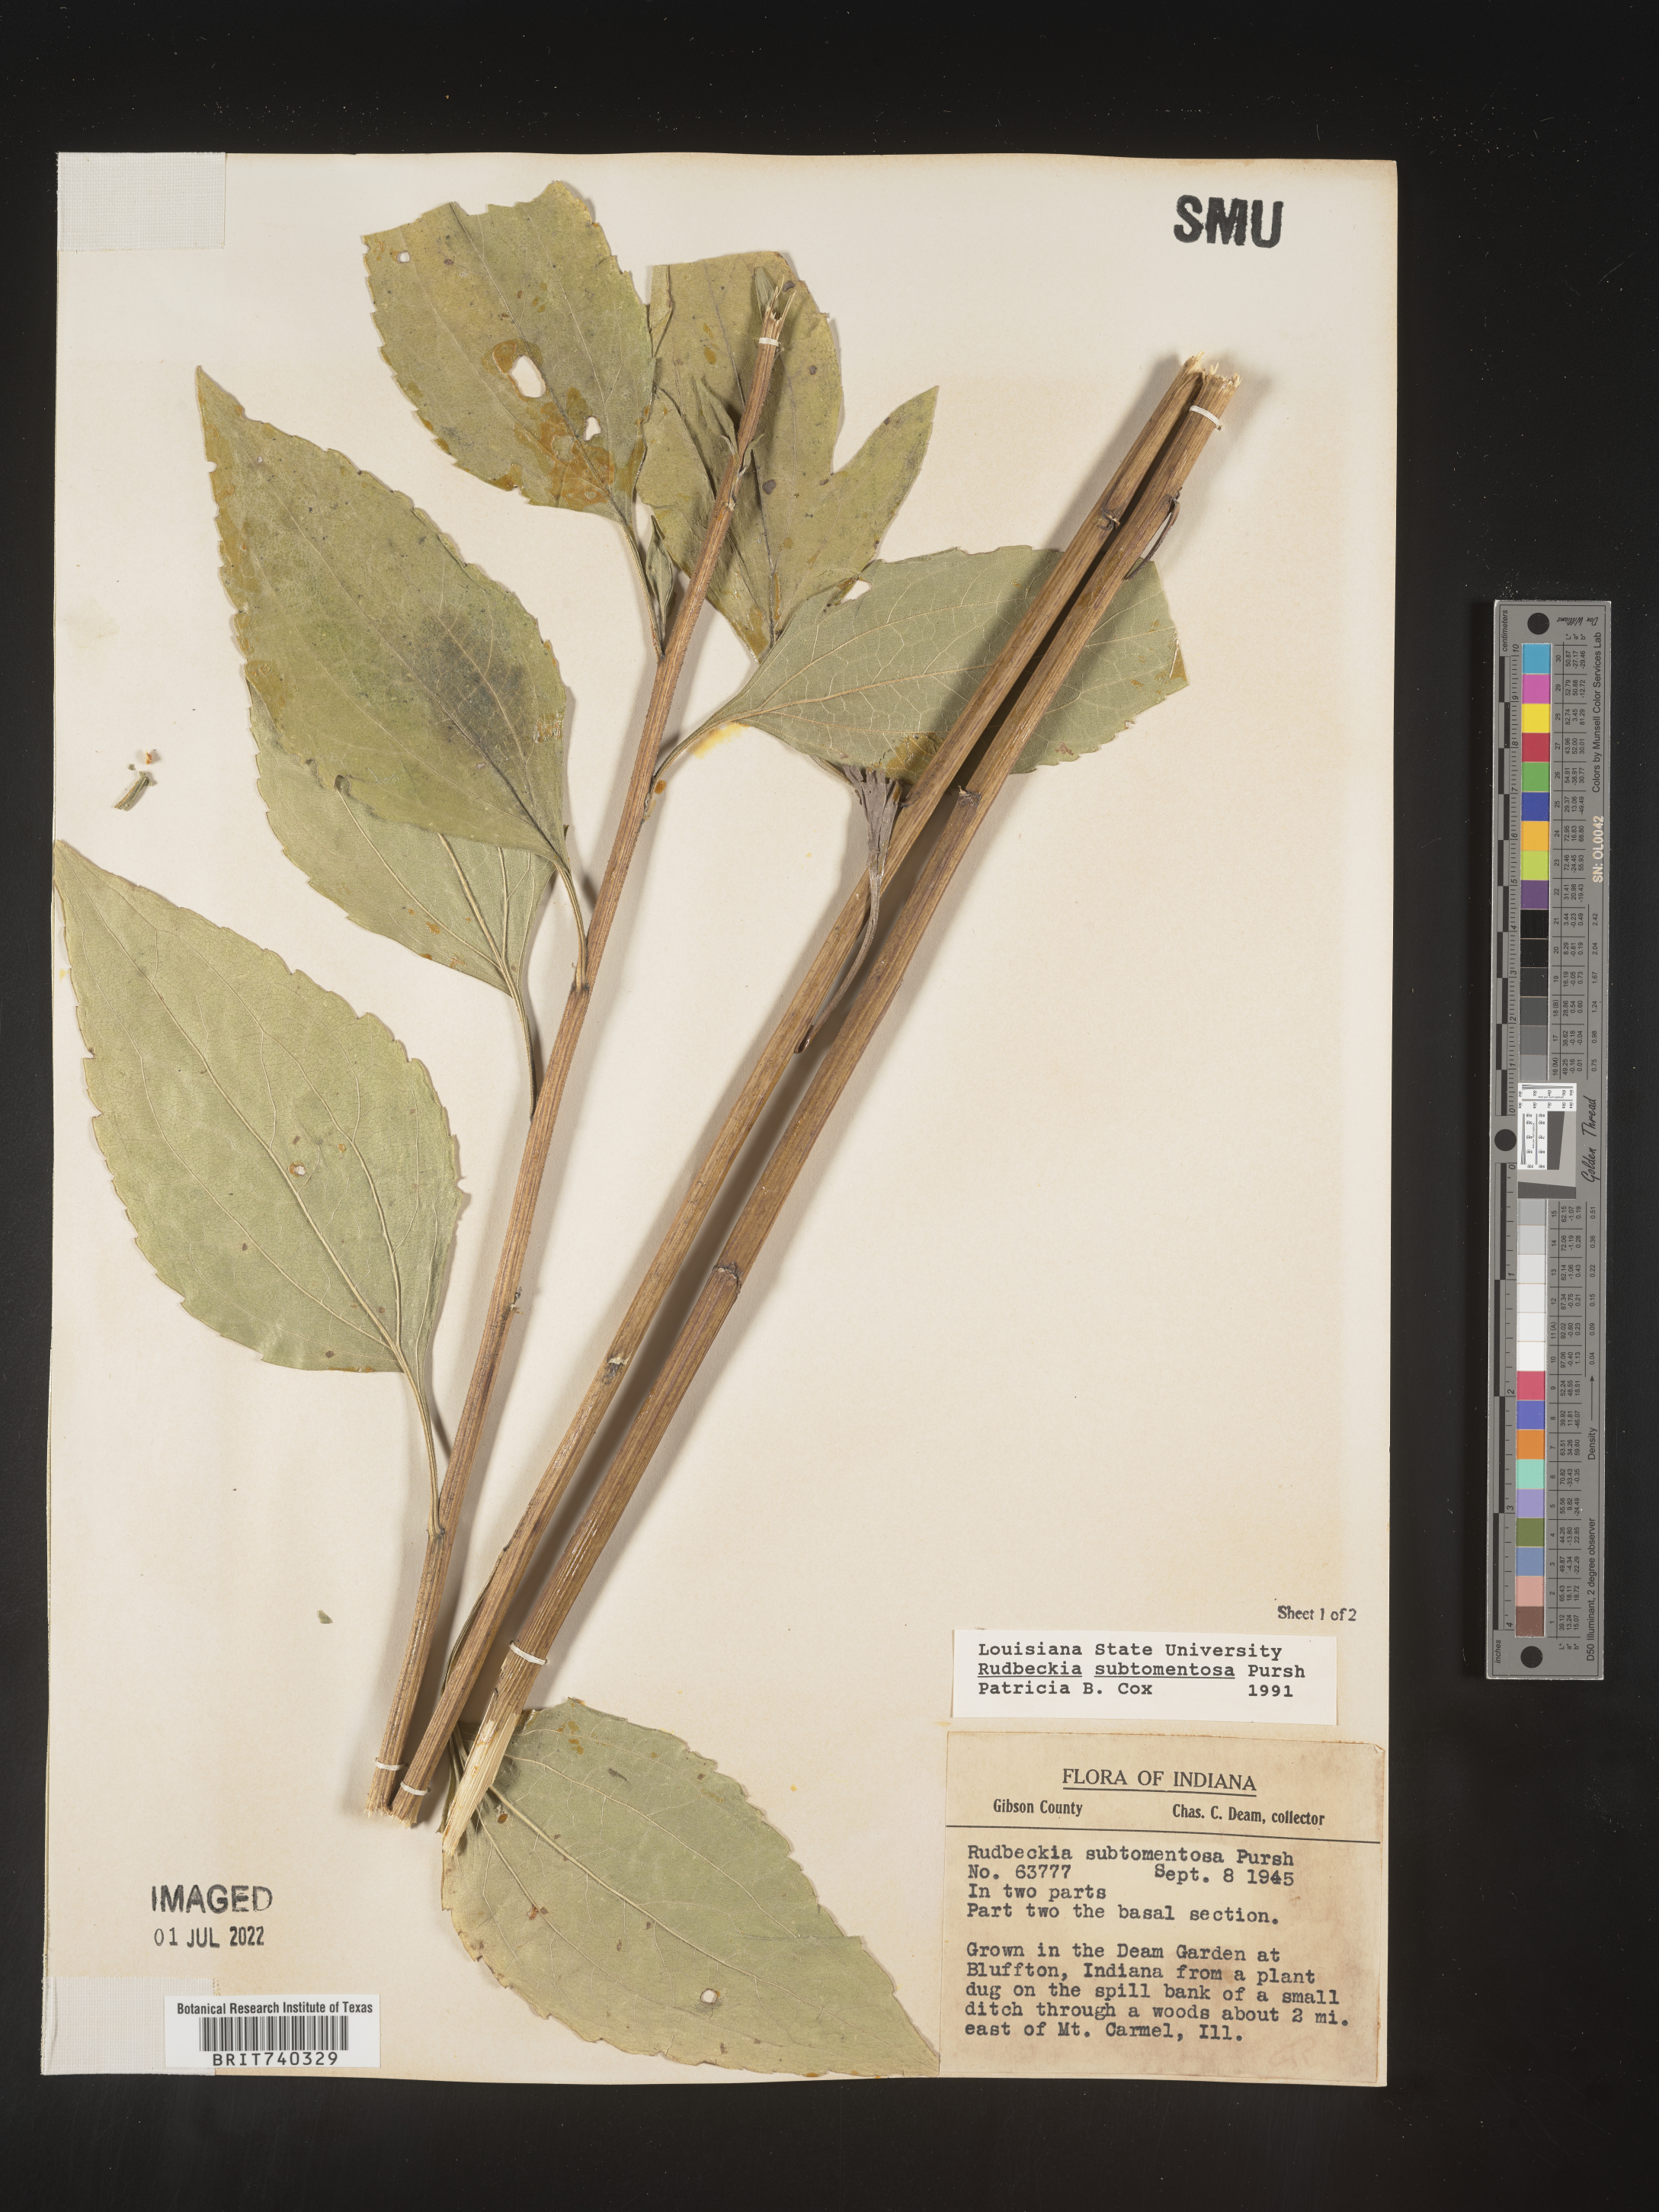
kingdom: Plantae
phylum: Tracheophyta
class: Magnoliopsida
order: Asterales
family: Asteraceae
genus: Rudbeckia
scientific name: Rudbeckia subtomentosa
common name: Sweet coneflower
